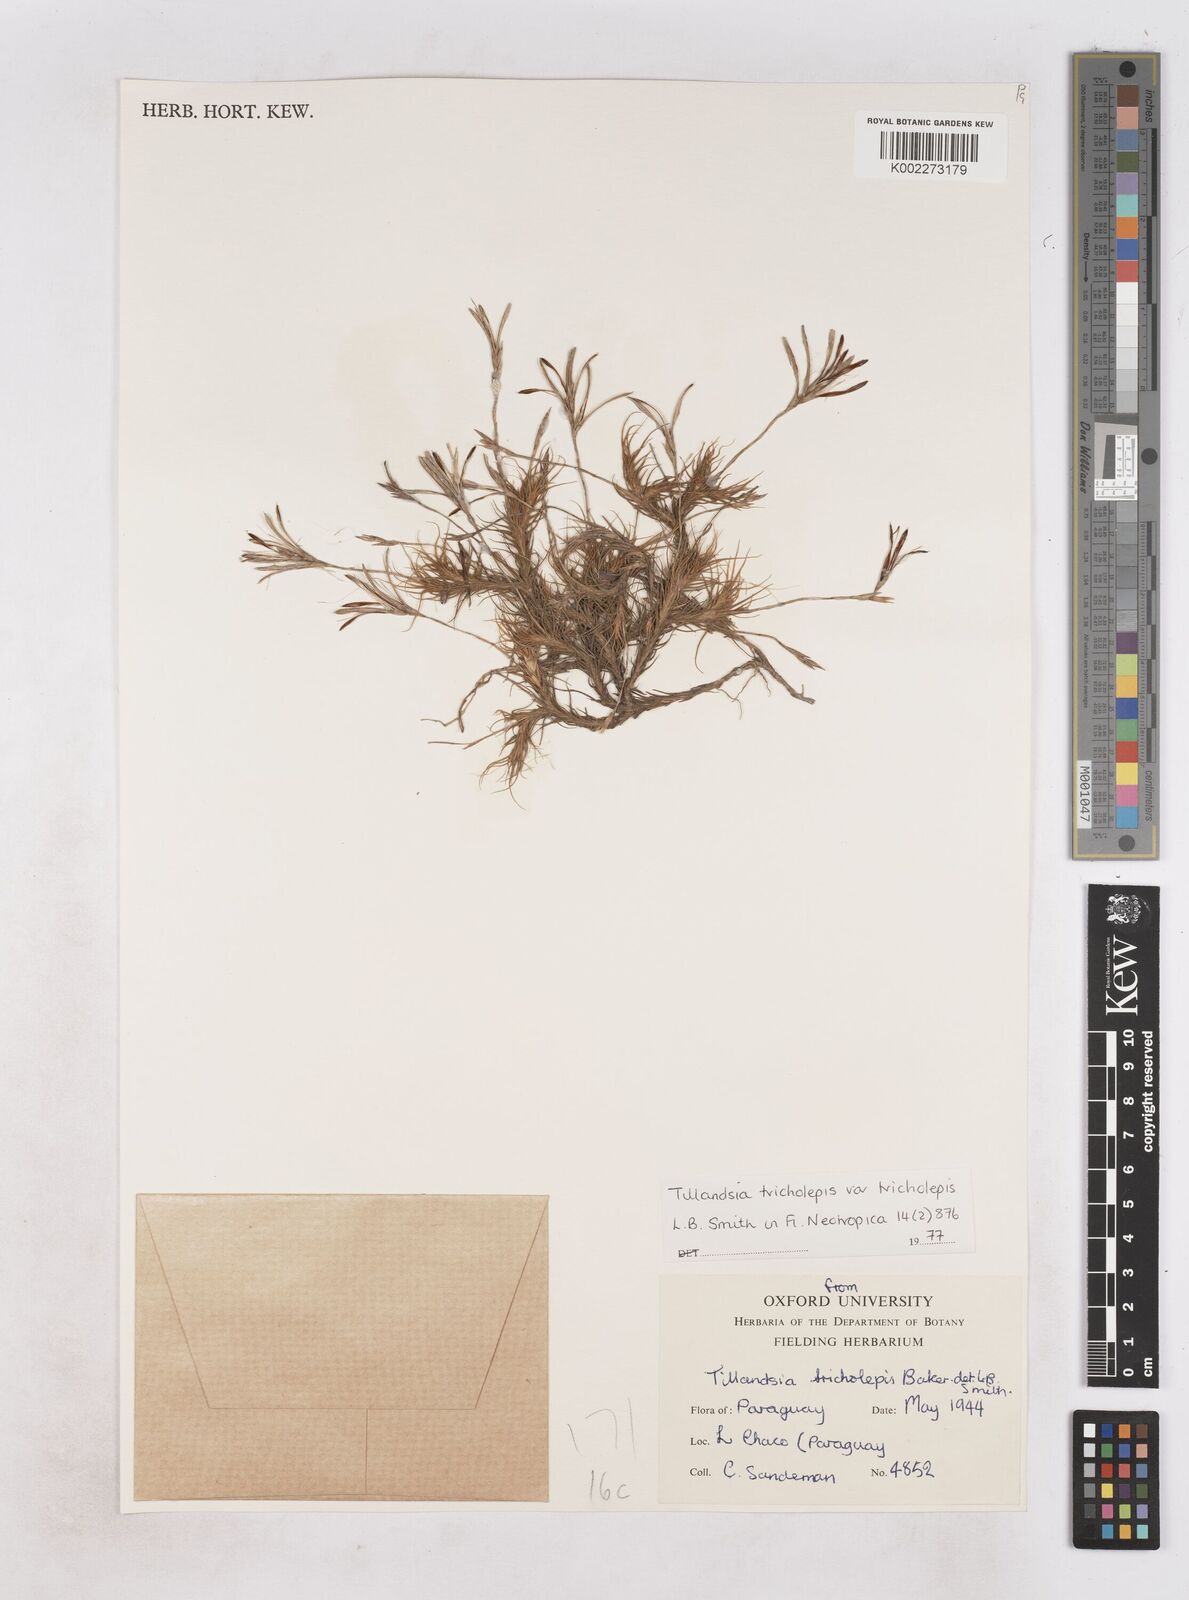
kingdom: Plantae
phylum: Tracheophyta
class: Liliopsida
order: Poales
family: Bromeliaceae
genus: Tillandsia
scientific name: Tillandsia tricholepis
